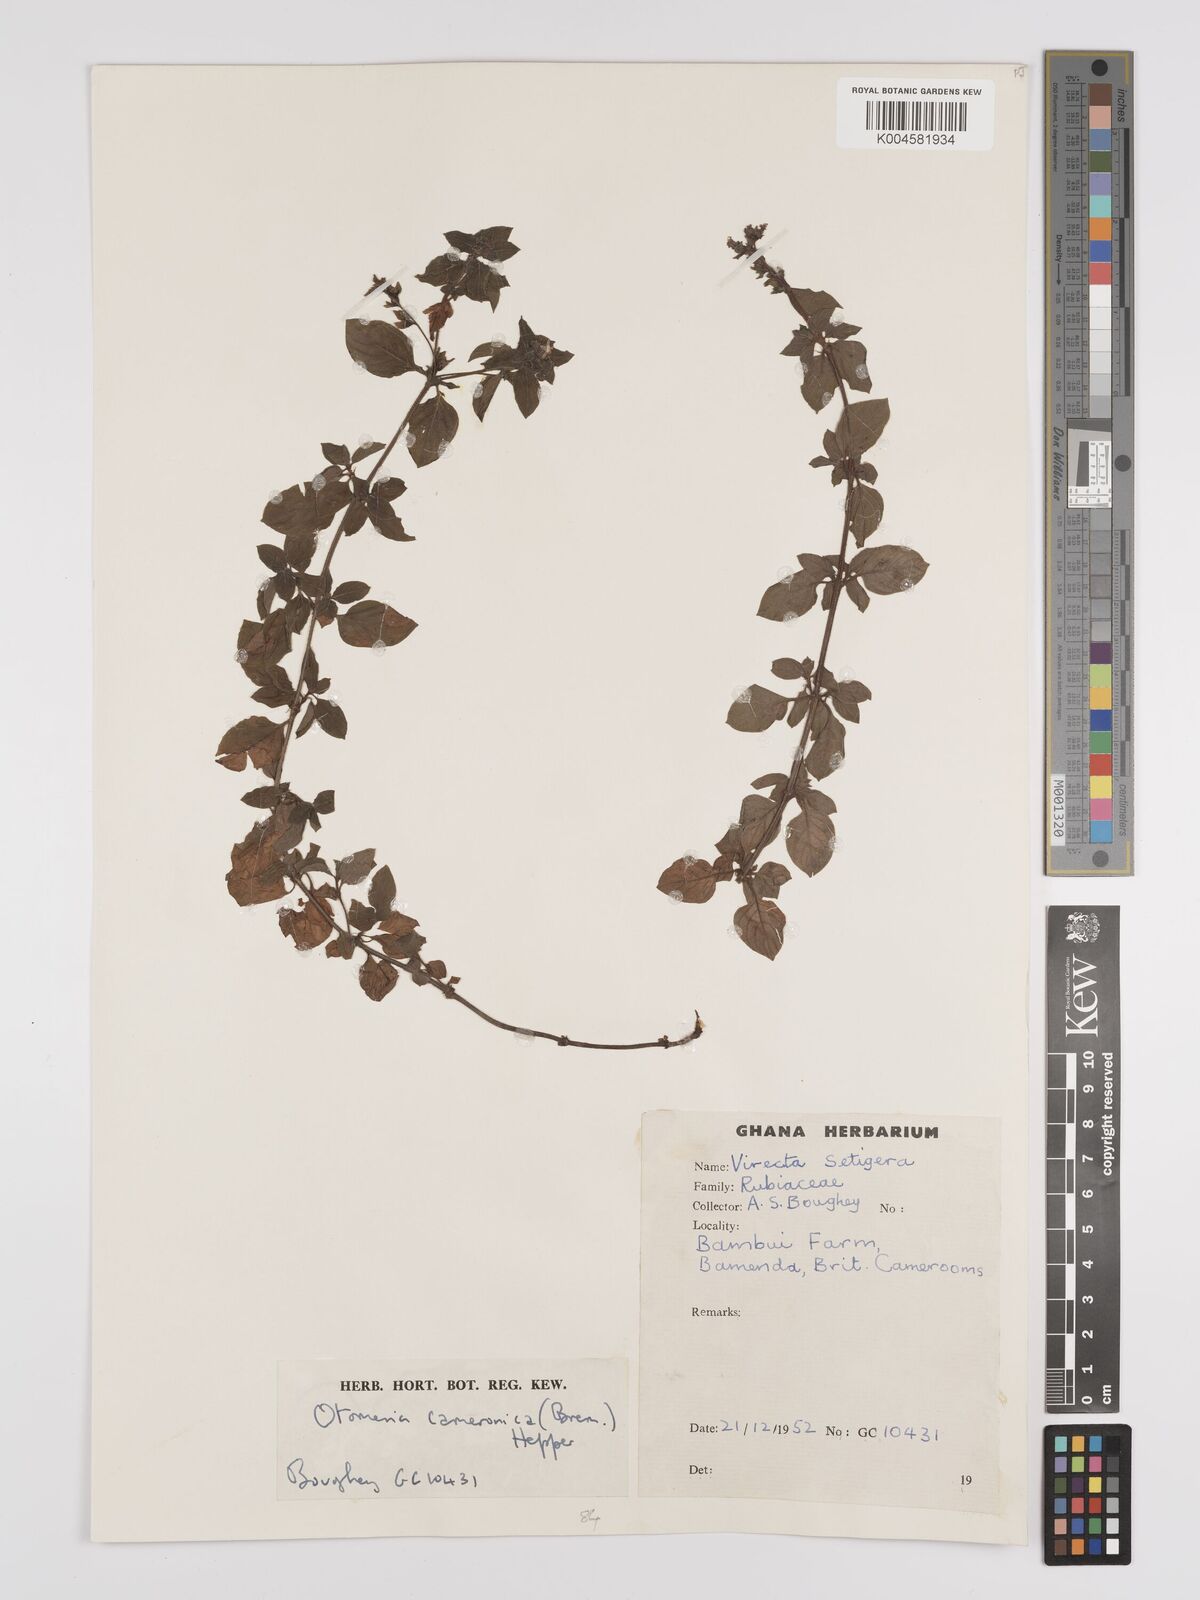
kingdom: Plantae
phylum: Tracheophyta
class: Magnoliopsida
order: Gentianales
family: Rubiaceae
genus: Otomeria
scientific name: Otomeria cameronica
